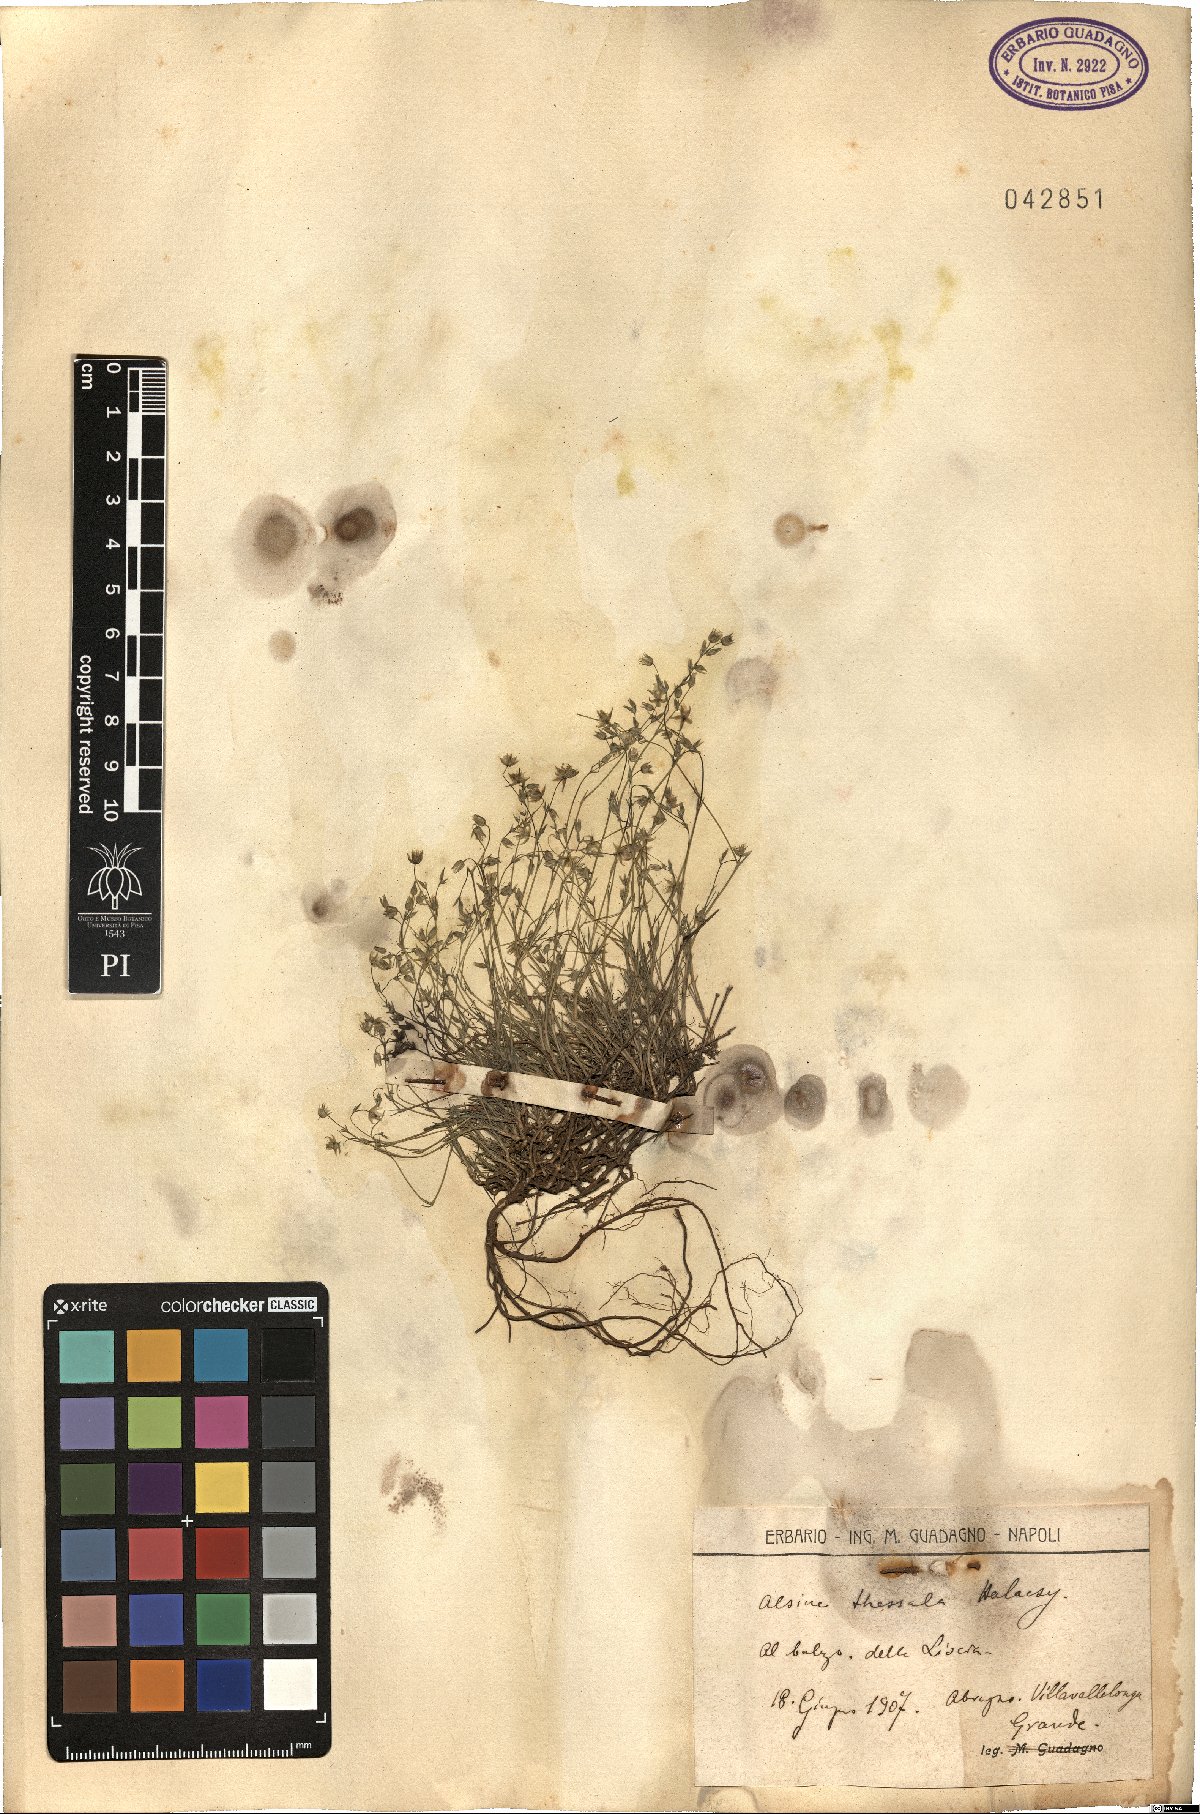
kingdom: Plantae
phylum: Tracheophyta
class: Magnoliopsida
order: Caryophyllales
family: Caryophyllaceae
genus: Sabulina
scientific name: Sabulina attica
